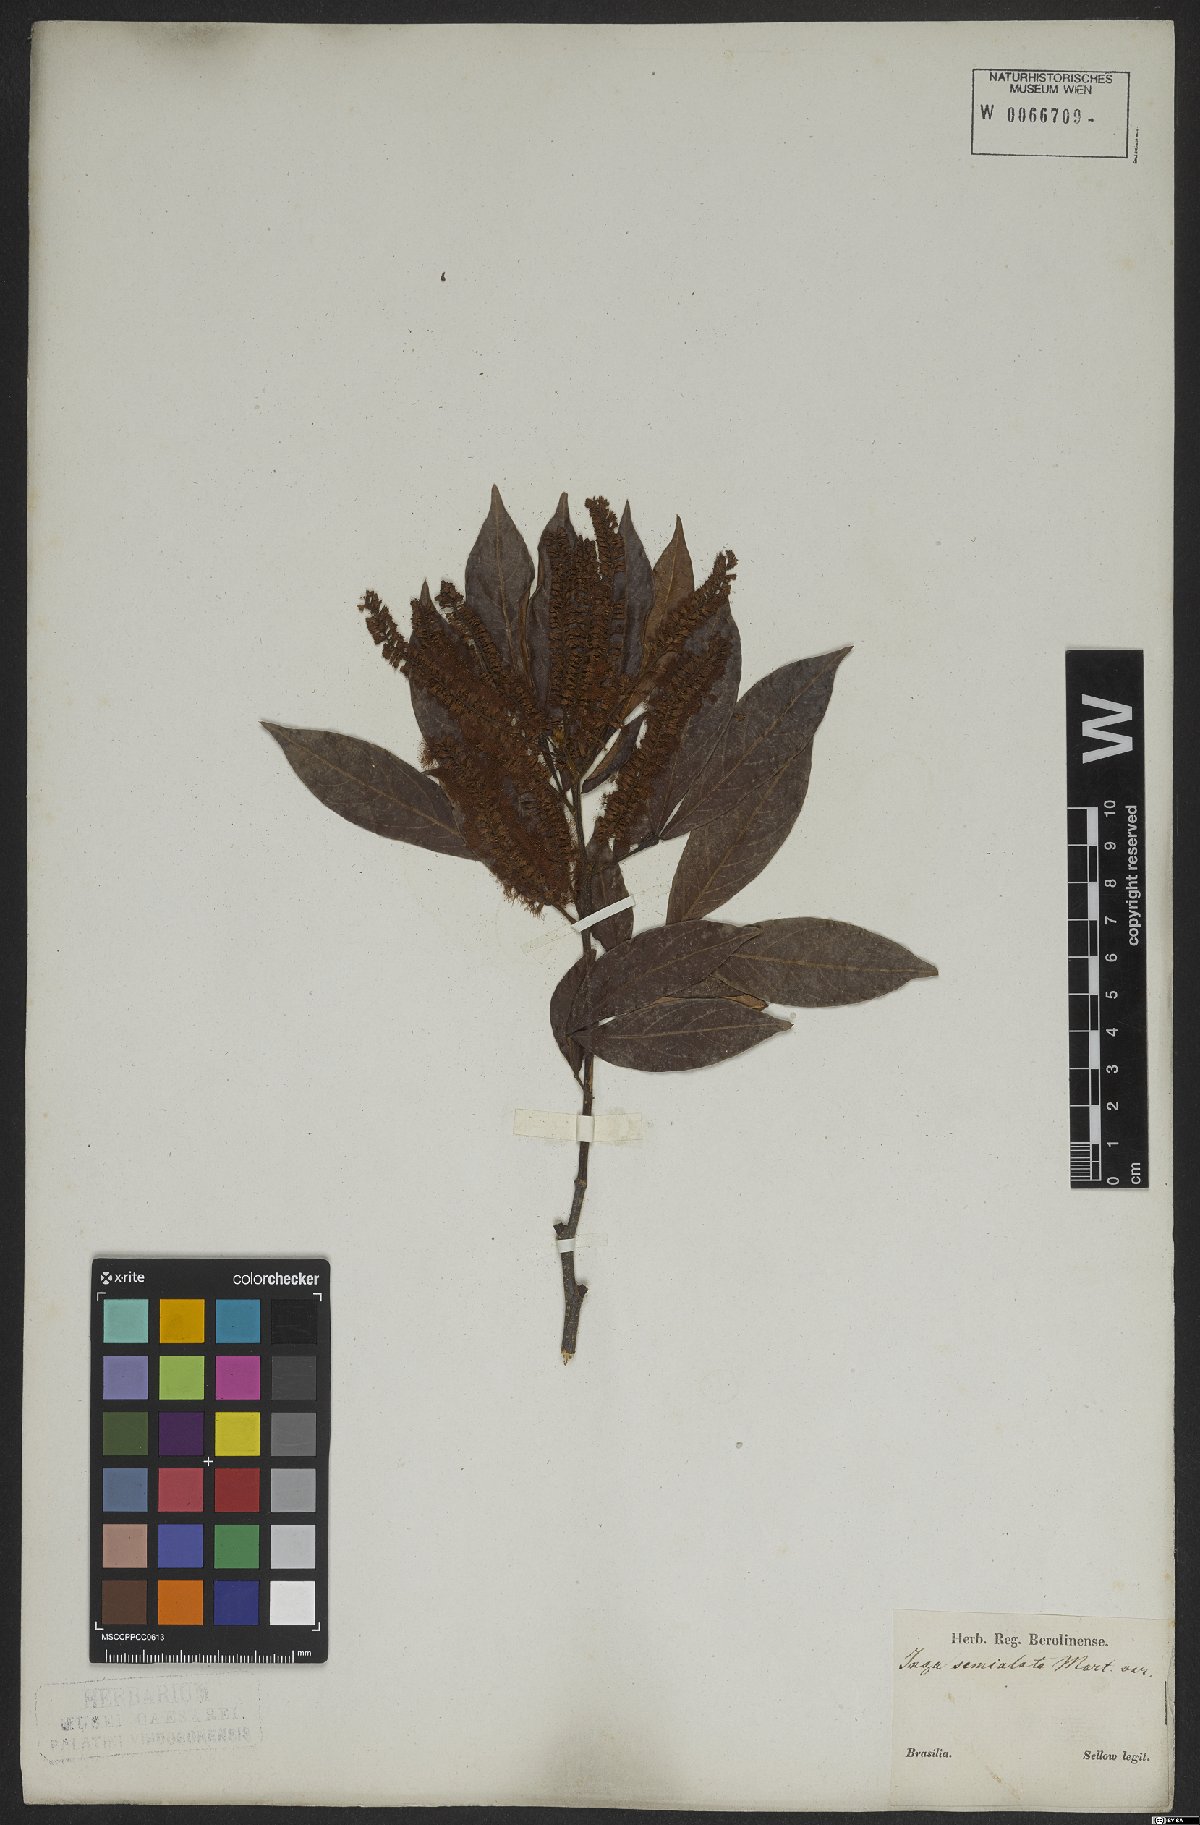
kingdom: Plantae
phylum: Tracheophyta
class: Magnoliopsida
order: Fabales
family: Fabaceae
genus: Inga
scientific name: Inga marginata
